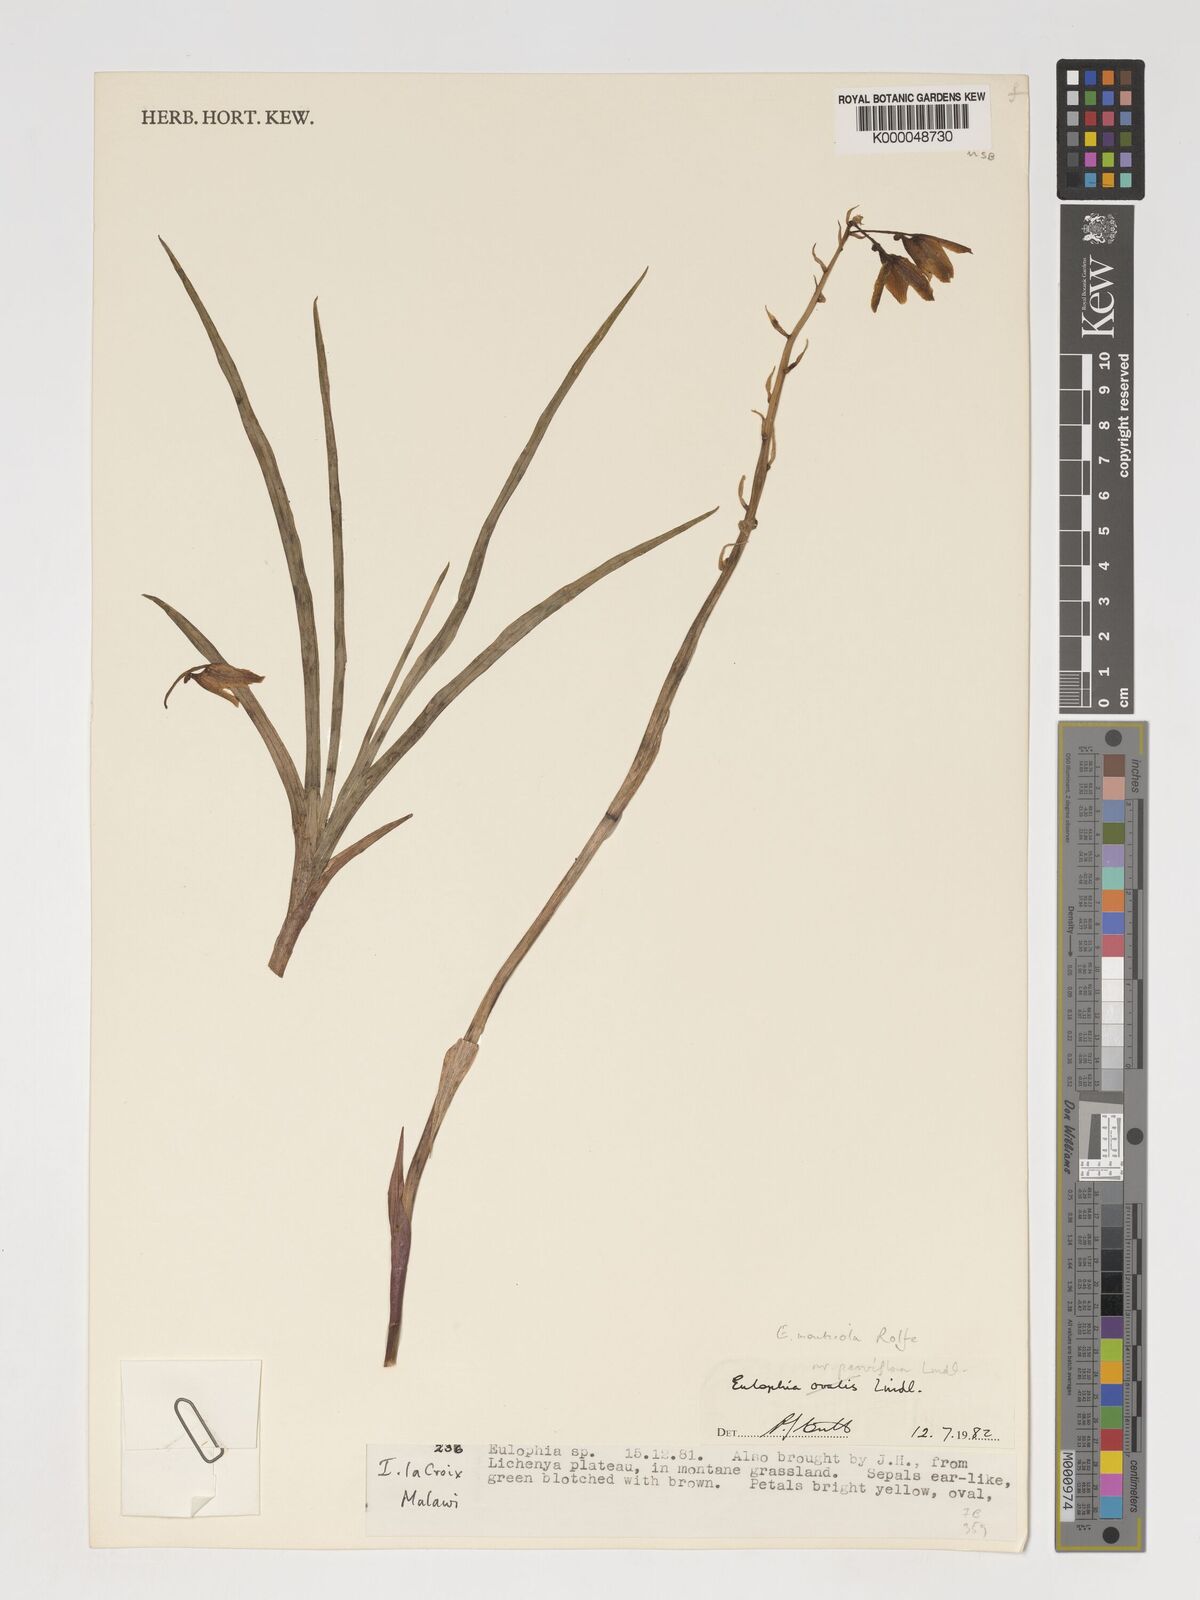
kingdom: Plantae
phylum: Tracheophyta
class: Liliopsida
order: Asparagales
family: Orchidaceae
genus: Eulophia
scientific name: Eulophia monticola
